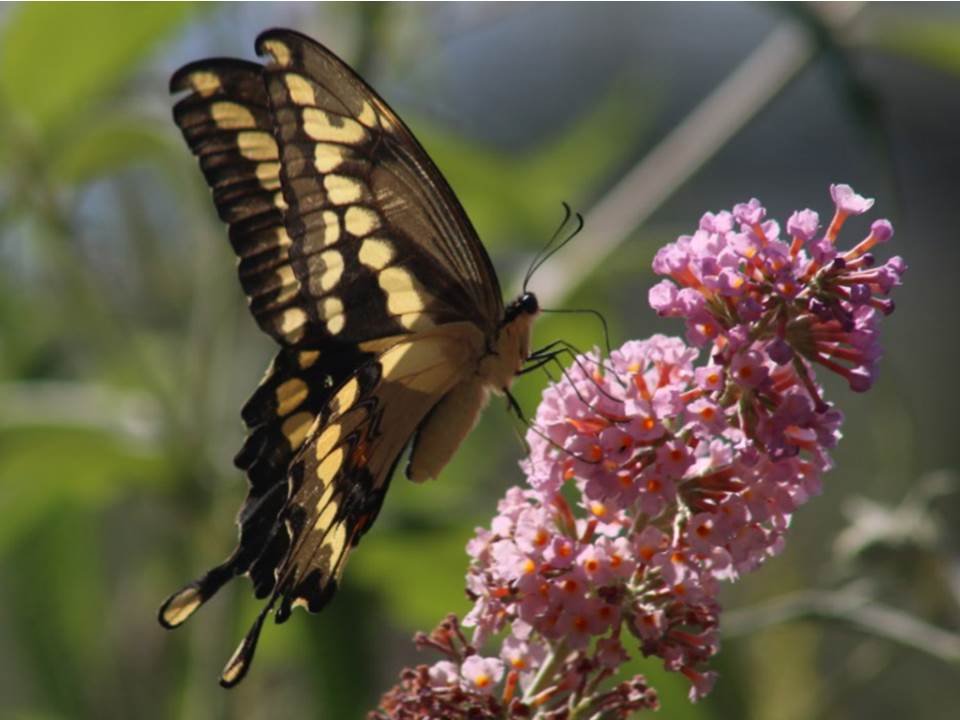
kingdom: Animalia
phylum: Arthropoda
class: Insecta
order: Lepidoptera
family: Papilionidae
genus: Papilio
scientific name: Papilio cresphontes
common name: Eastern Giant Swallowtail
